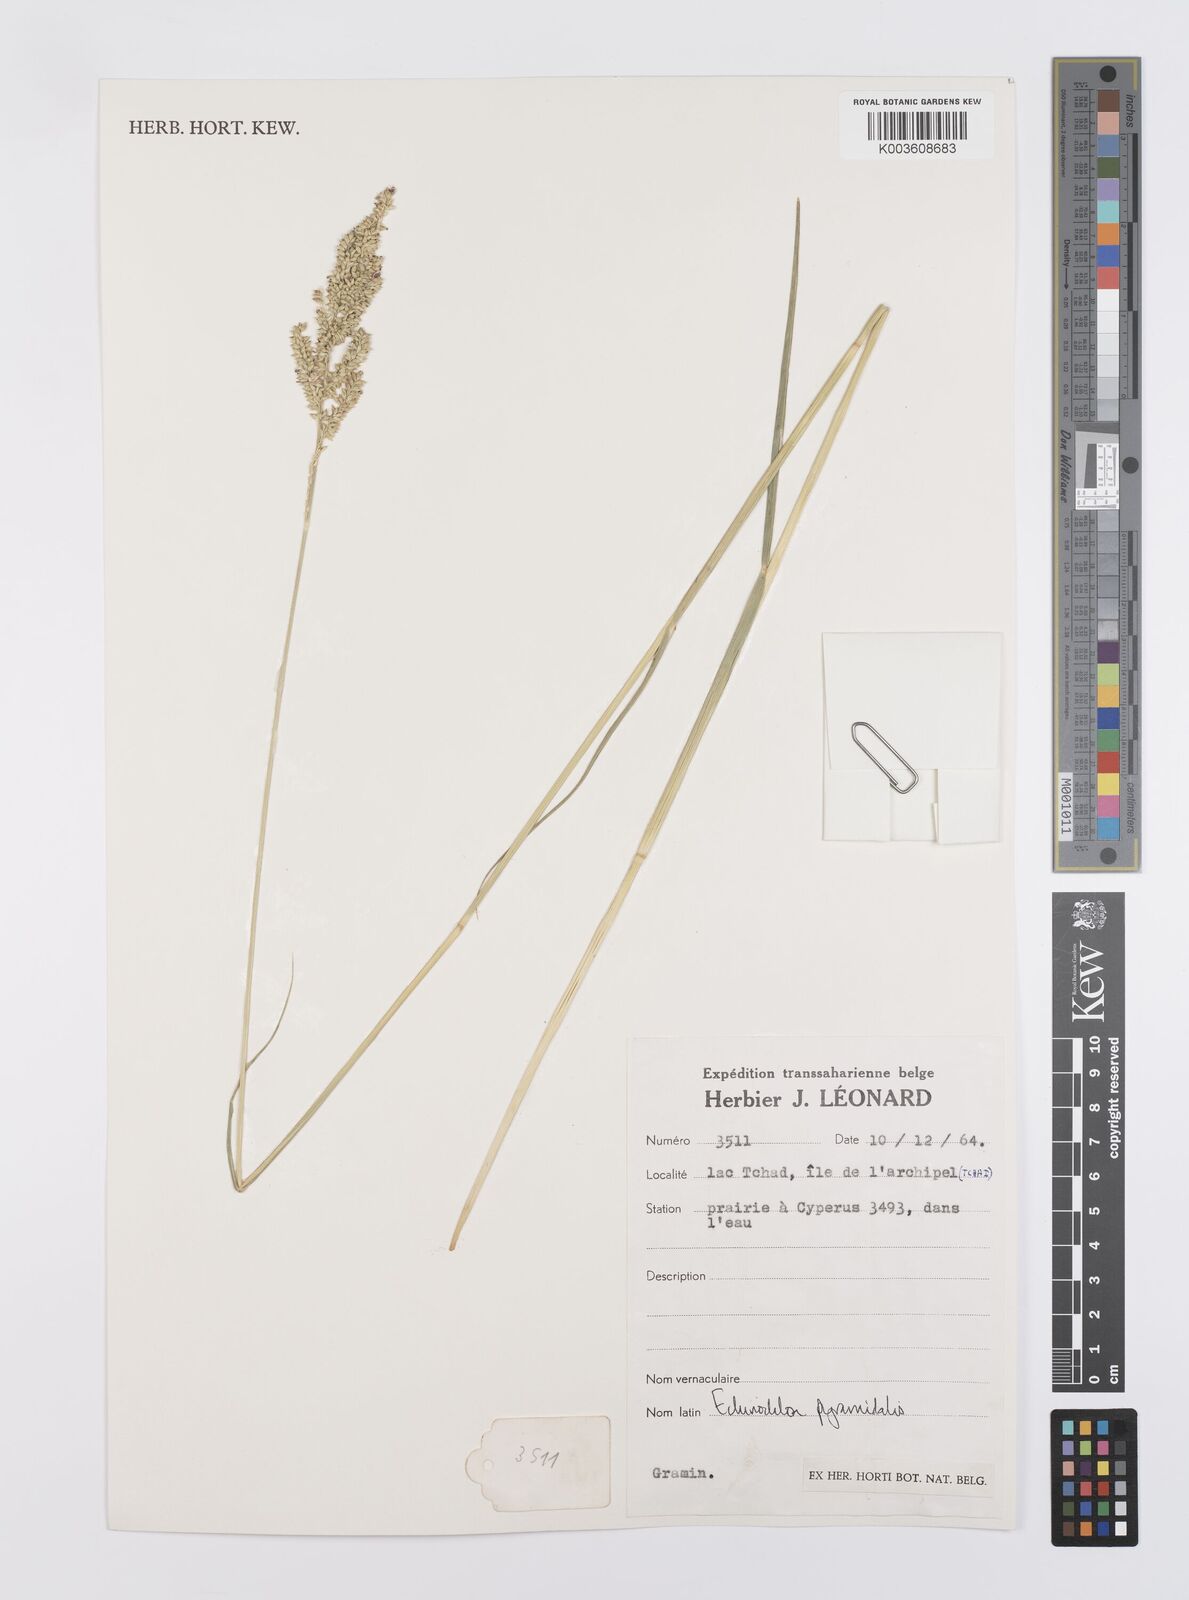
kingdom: Plantae
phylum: Tracheophyta
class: Liliopsida
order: Poales
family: Poaceae
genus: Echinochloa
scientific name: Echinochloa pyramidalis
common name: Antelope grass
